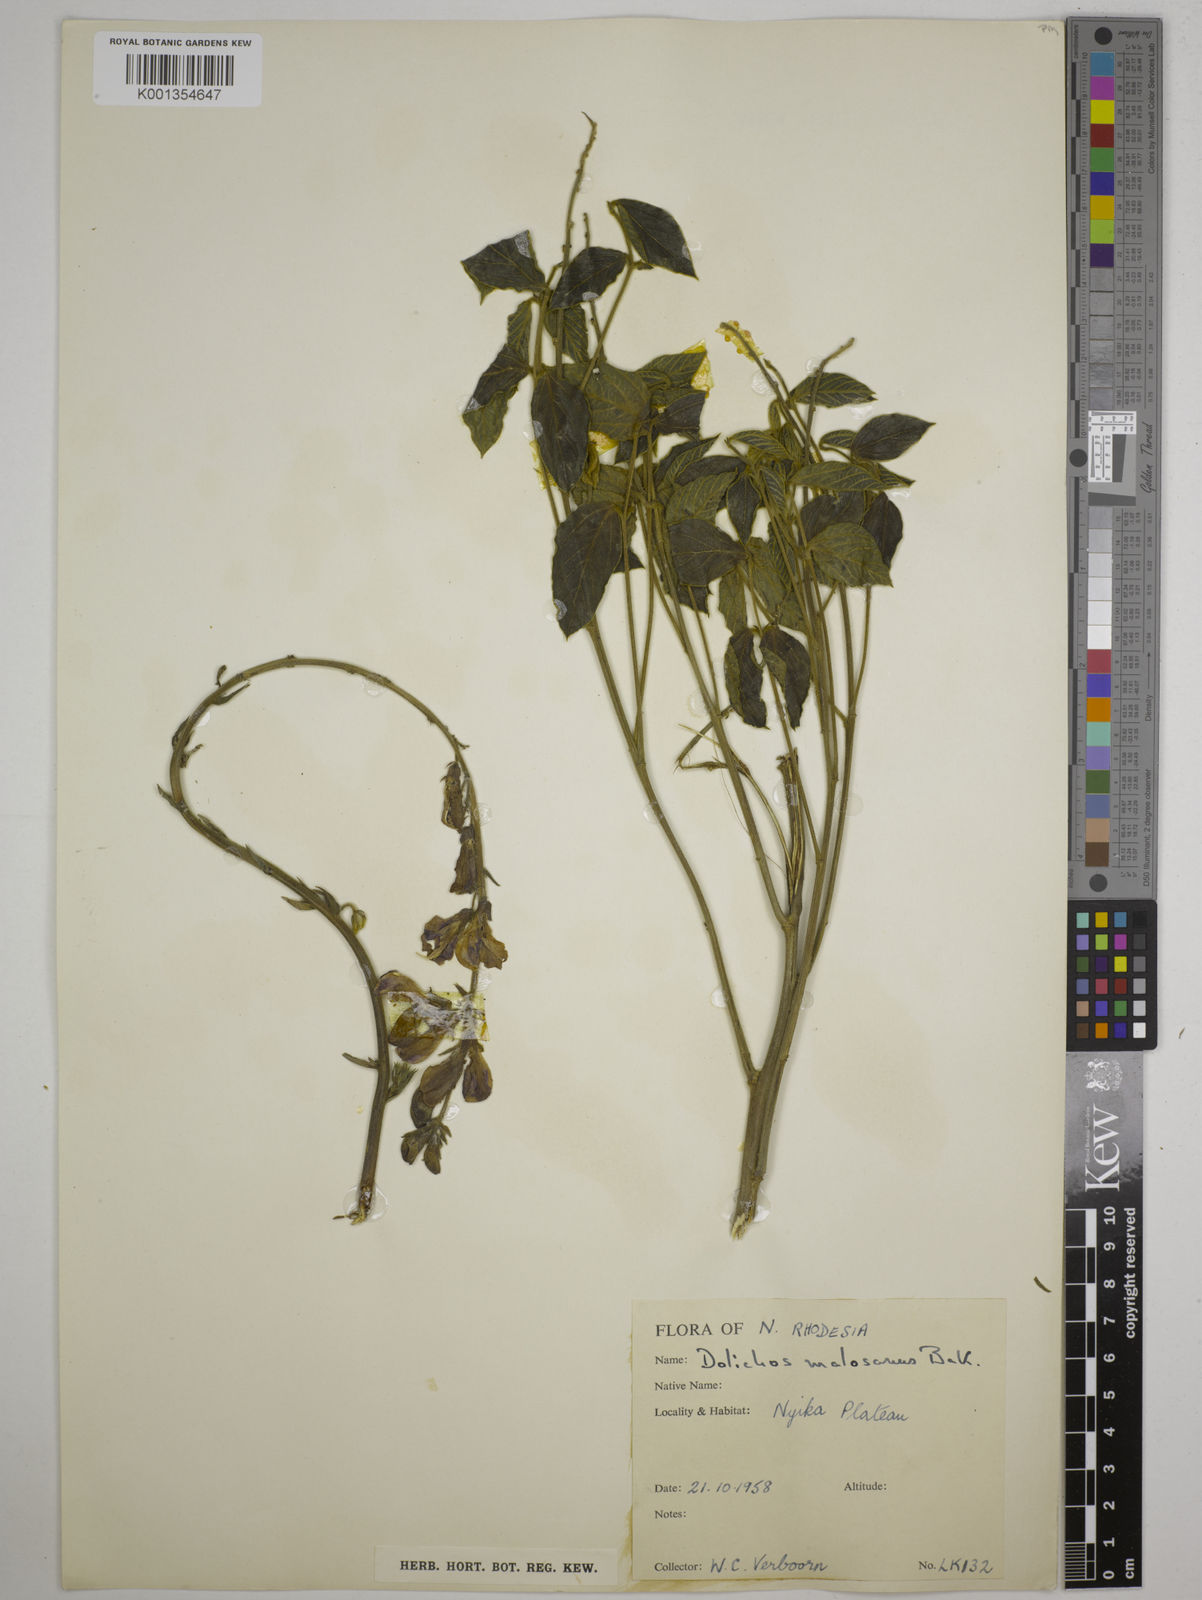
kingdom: Plantae
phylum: Tracheophyta
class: Magnoliopsida
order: Fabales
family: Fabaceae
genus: Dolichos
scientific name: Dolichos kilimandscharicus
